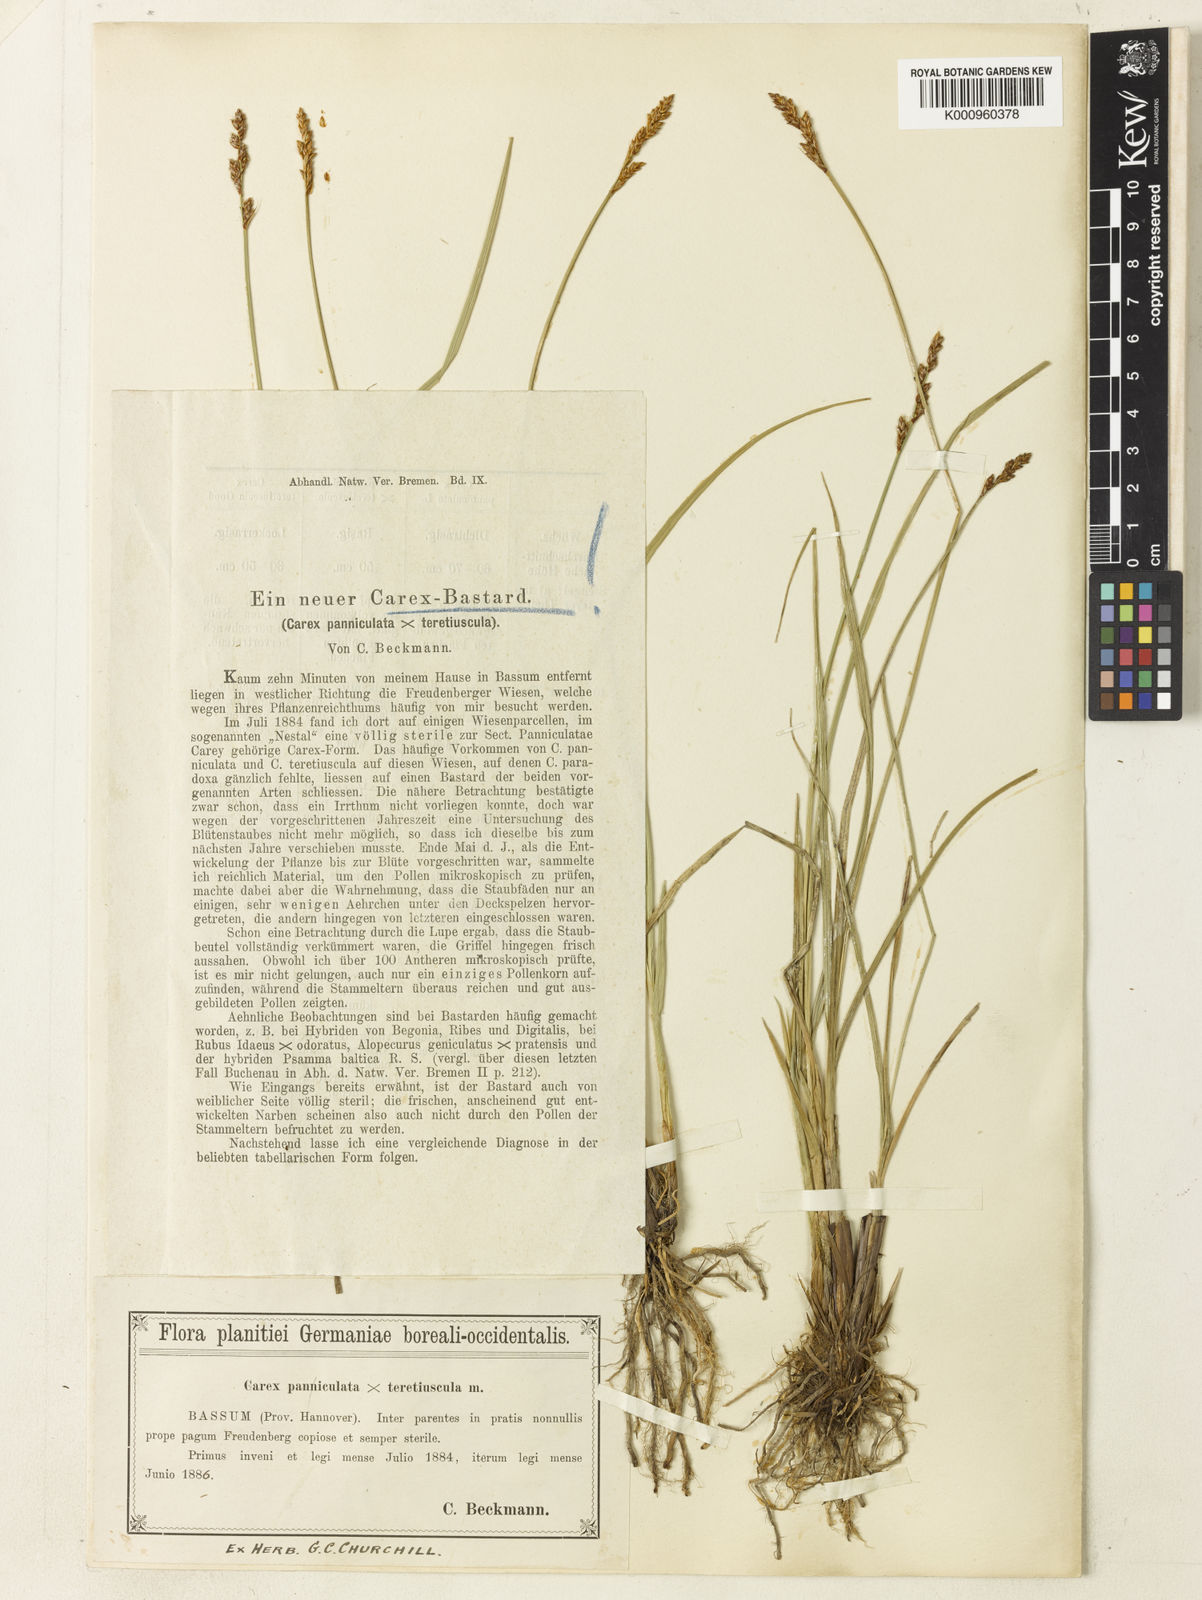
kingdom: Plantae
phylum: Tracheophyta
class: Liliopsida
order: Poales
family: Cyperaceae
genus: Carex
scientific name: Carex
